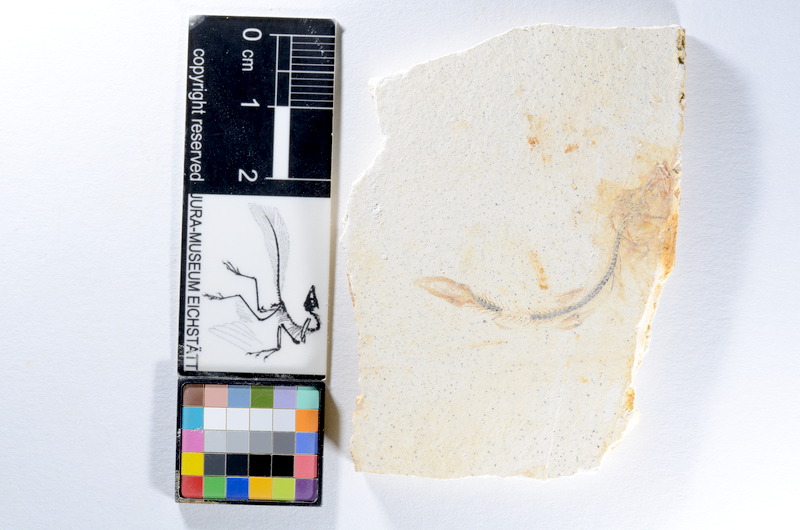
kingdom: Animalia
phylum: Chordata
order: Salmoniformes
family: Orthogonikleithridae
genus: Orthogonikleithrus
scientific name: Orthogonikleithrus hoelli
